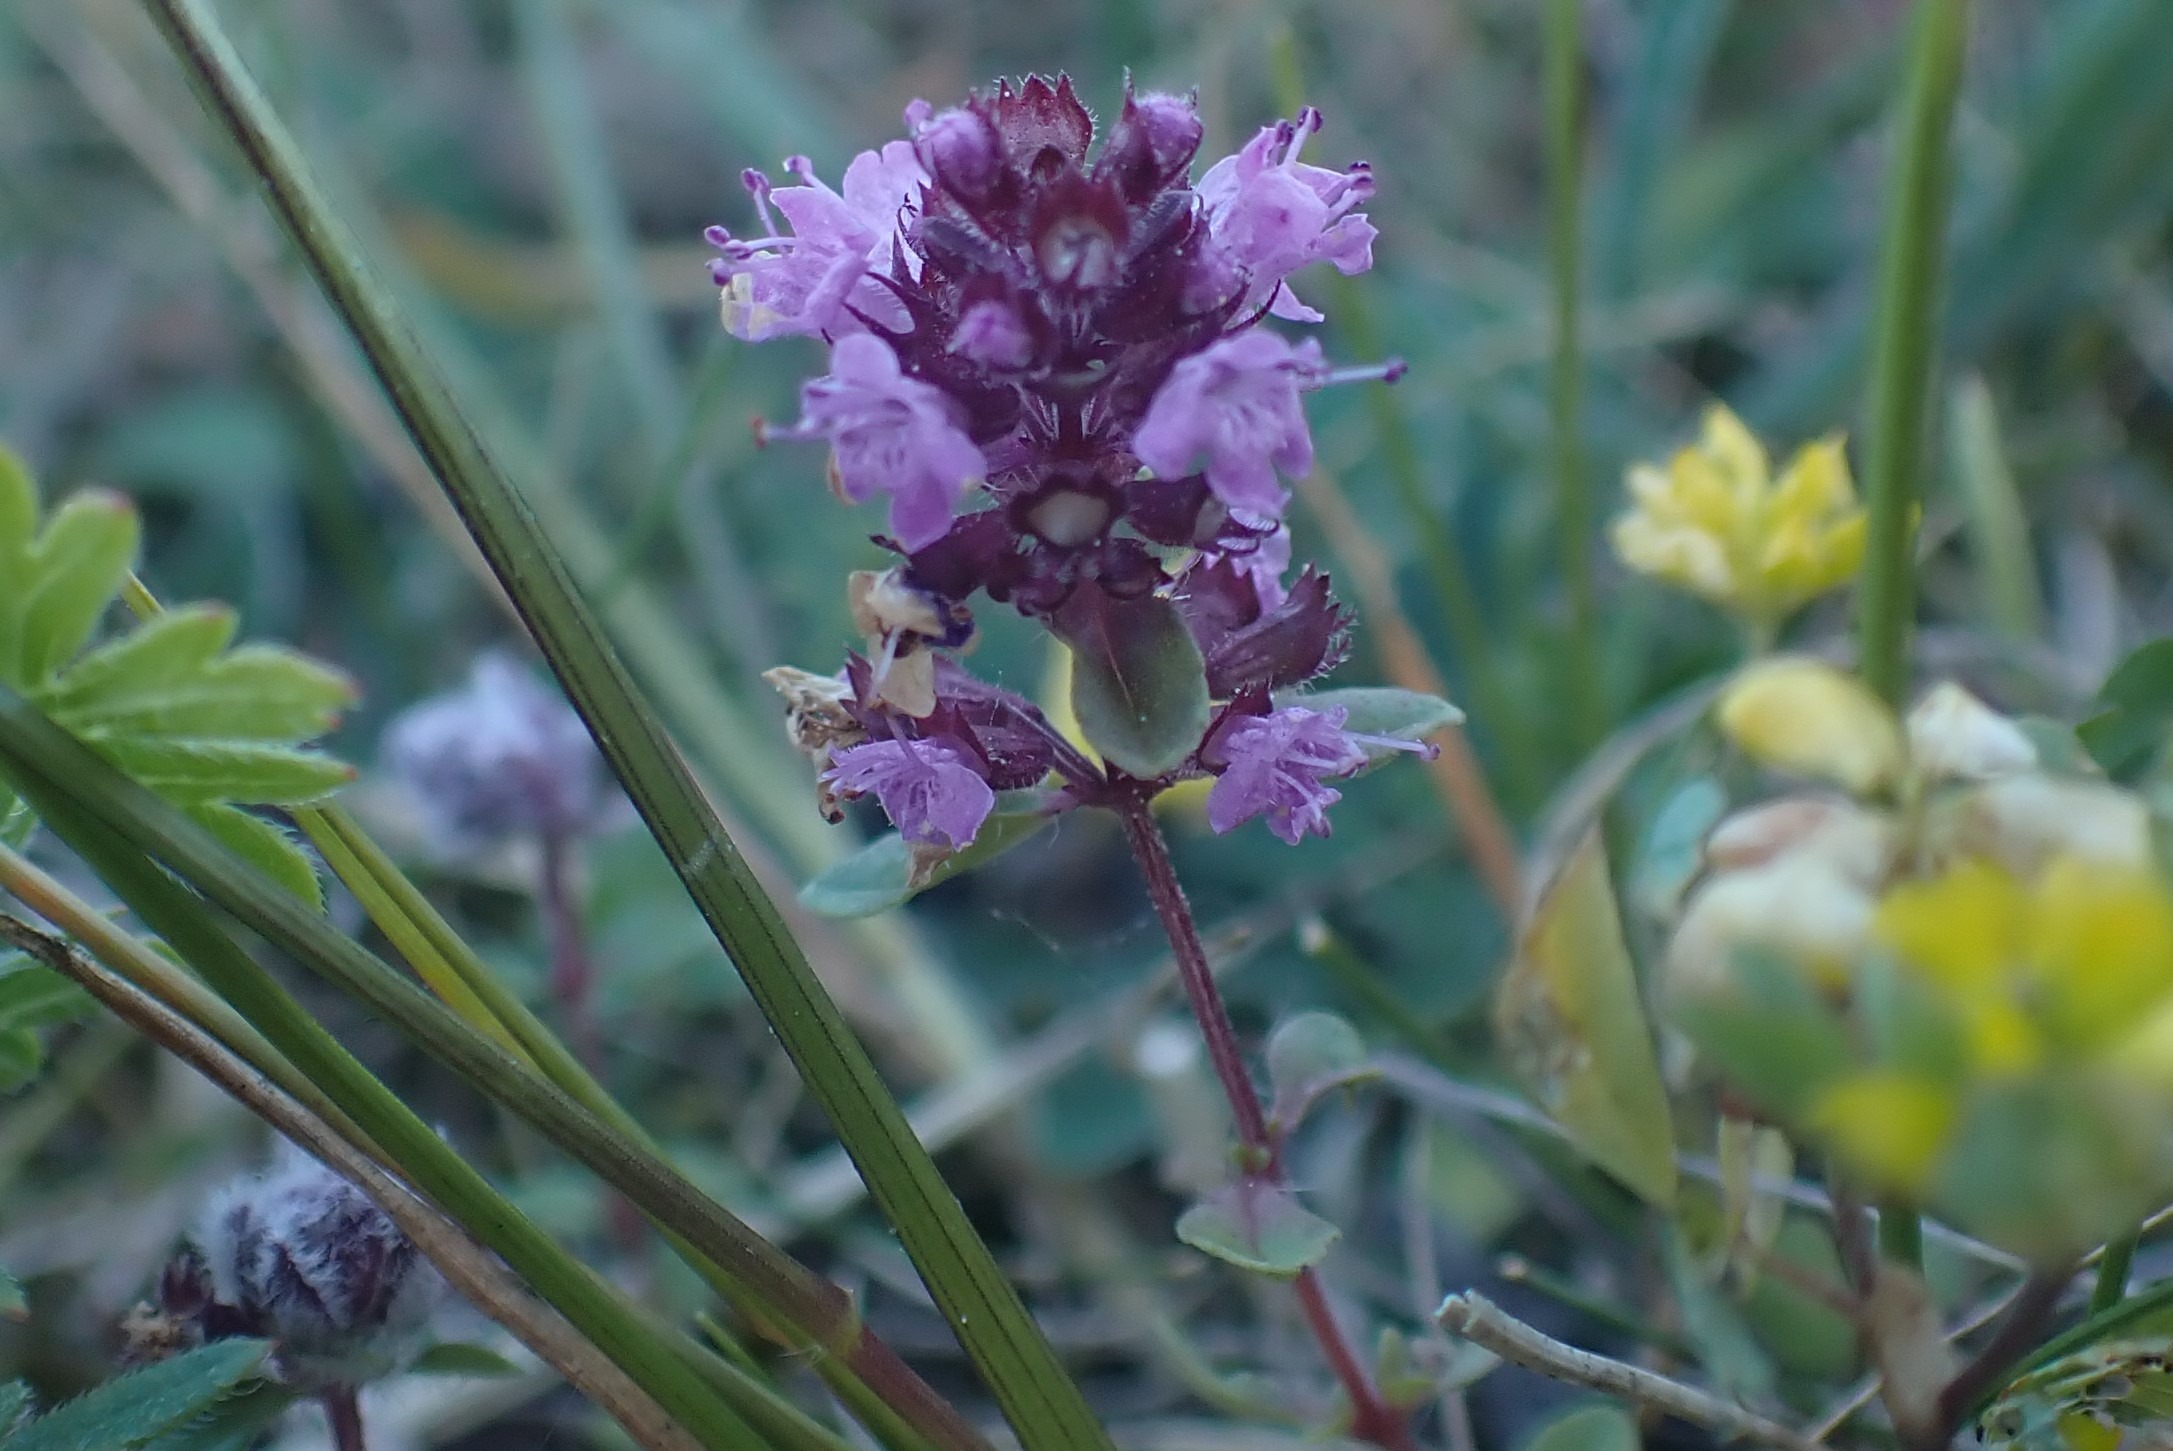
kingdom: Plantae
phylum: Tracheophyta
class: Magnoliopsida
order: Lamiales
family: Lamiaceae
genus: Thymus
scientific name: Thymus pulegioides
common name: Bredbladet timian
